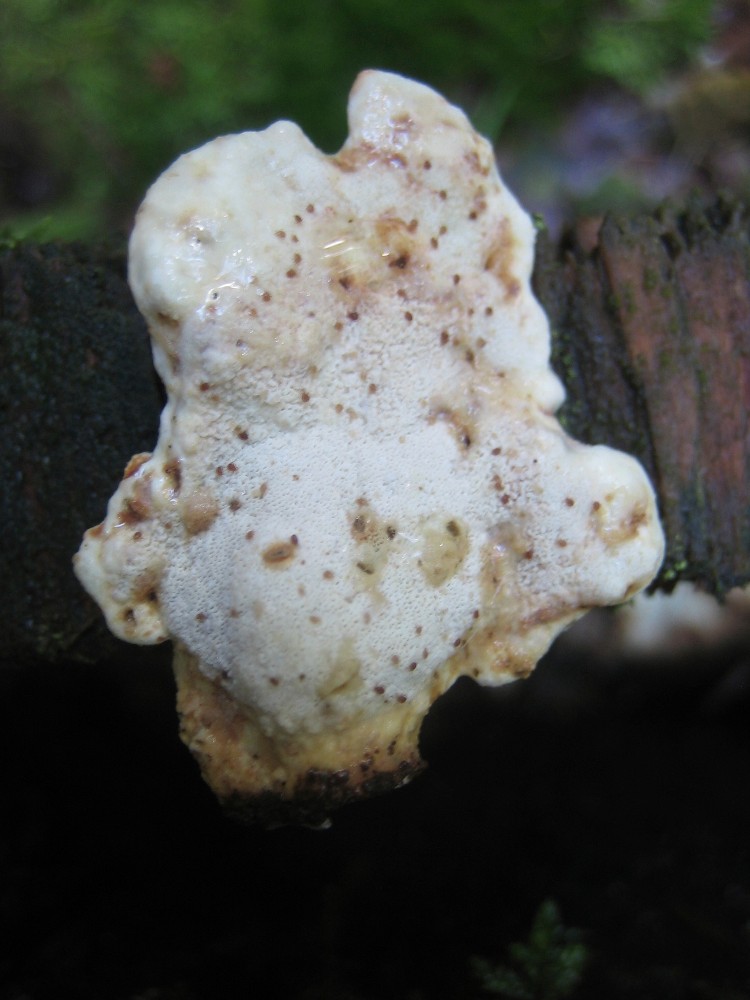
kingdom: Fungi
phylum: Basidiomycota
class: Agaricomycetes
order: Polyporales
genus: Calcipostia
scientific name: Calcipostia guttulata
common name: dråbe-kødporesvamp
